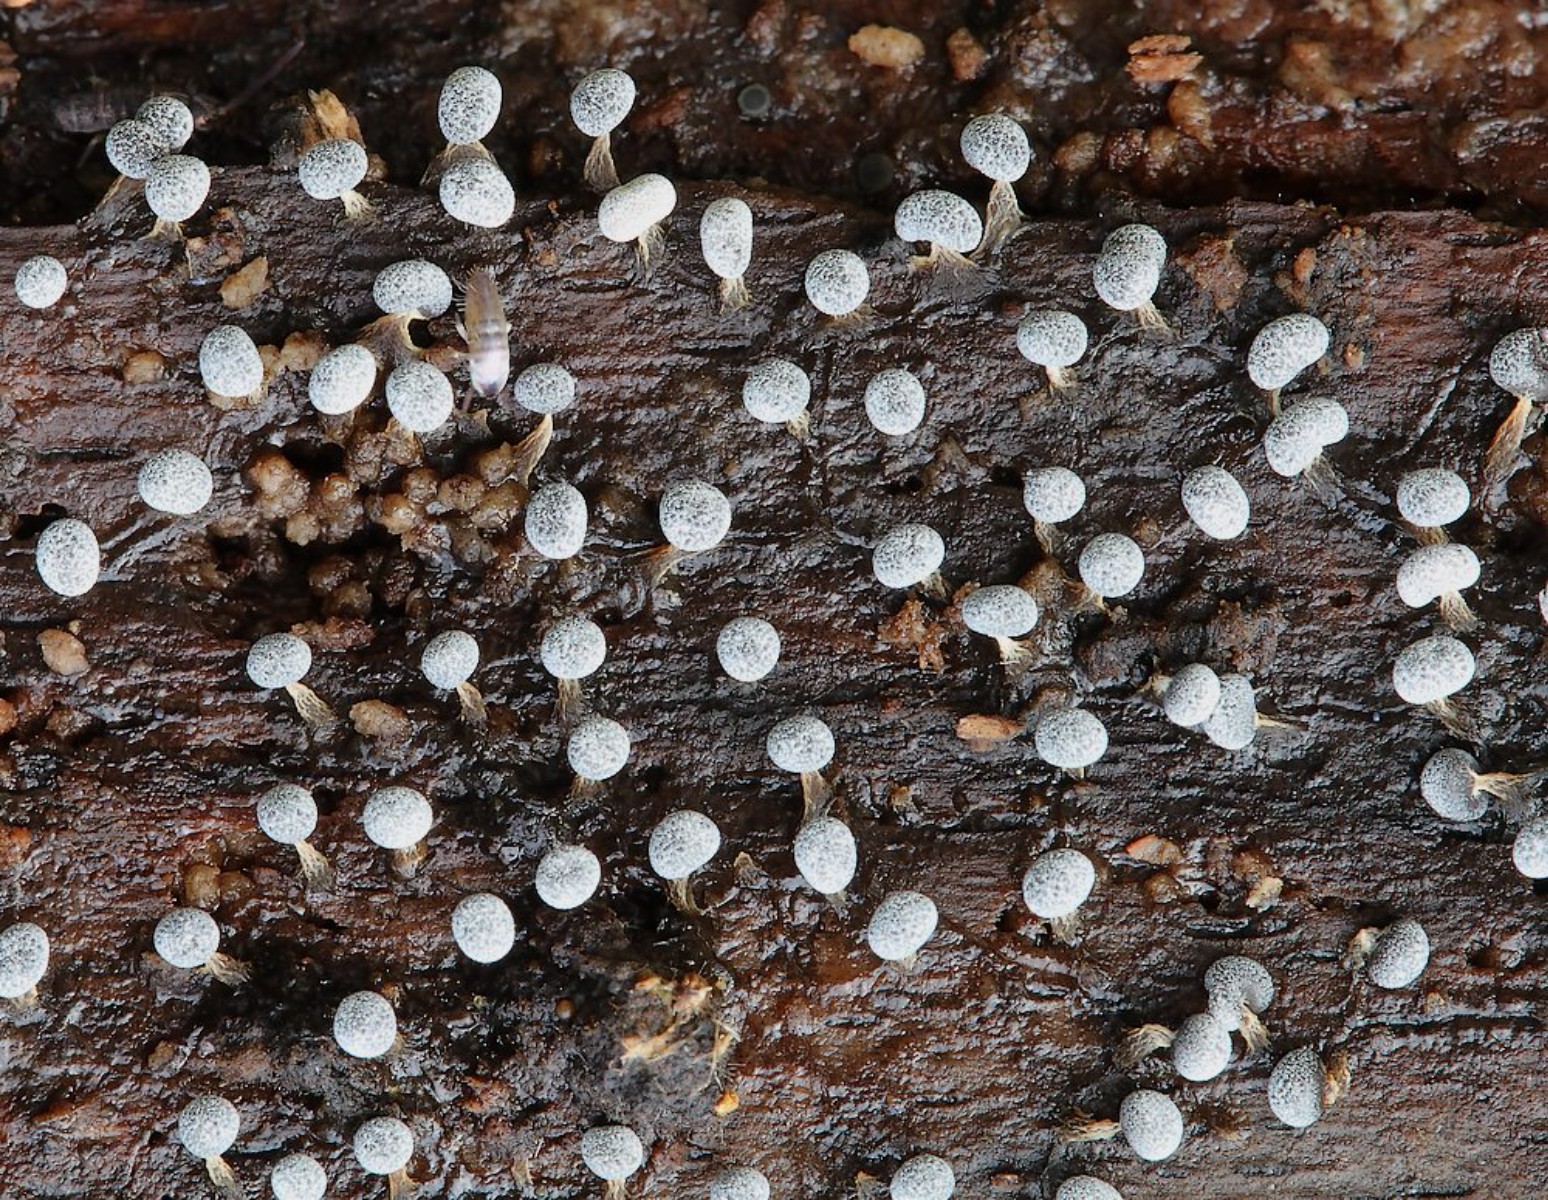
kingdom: Protozoa
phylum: Mycetozoa
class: Myxomycetes
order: Physarales
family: Physaraceae
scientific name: Physaraceae
